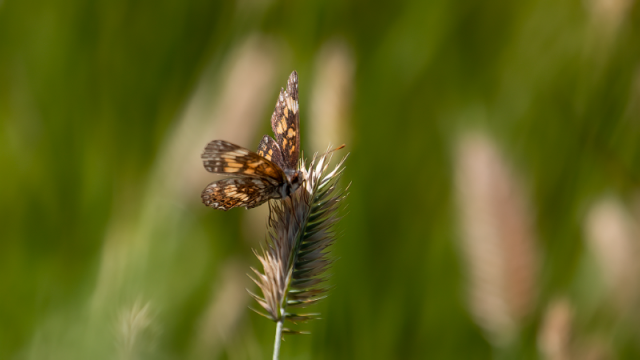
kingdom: Animalia
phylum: Arthropoda
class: Insecta
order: Lepidoptera
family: Nymphalidae
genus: Chlosyne
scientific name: Chlosyne gorgone
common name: Gorgone Checkerspot
